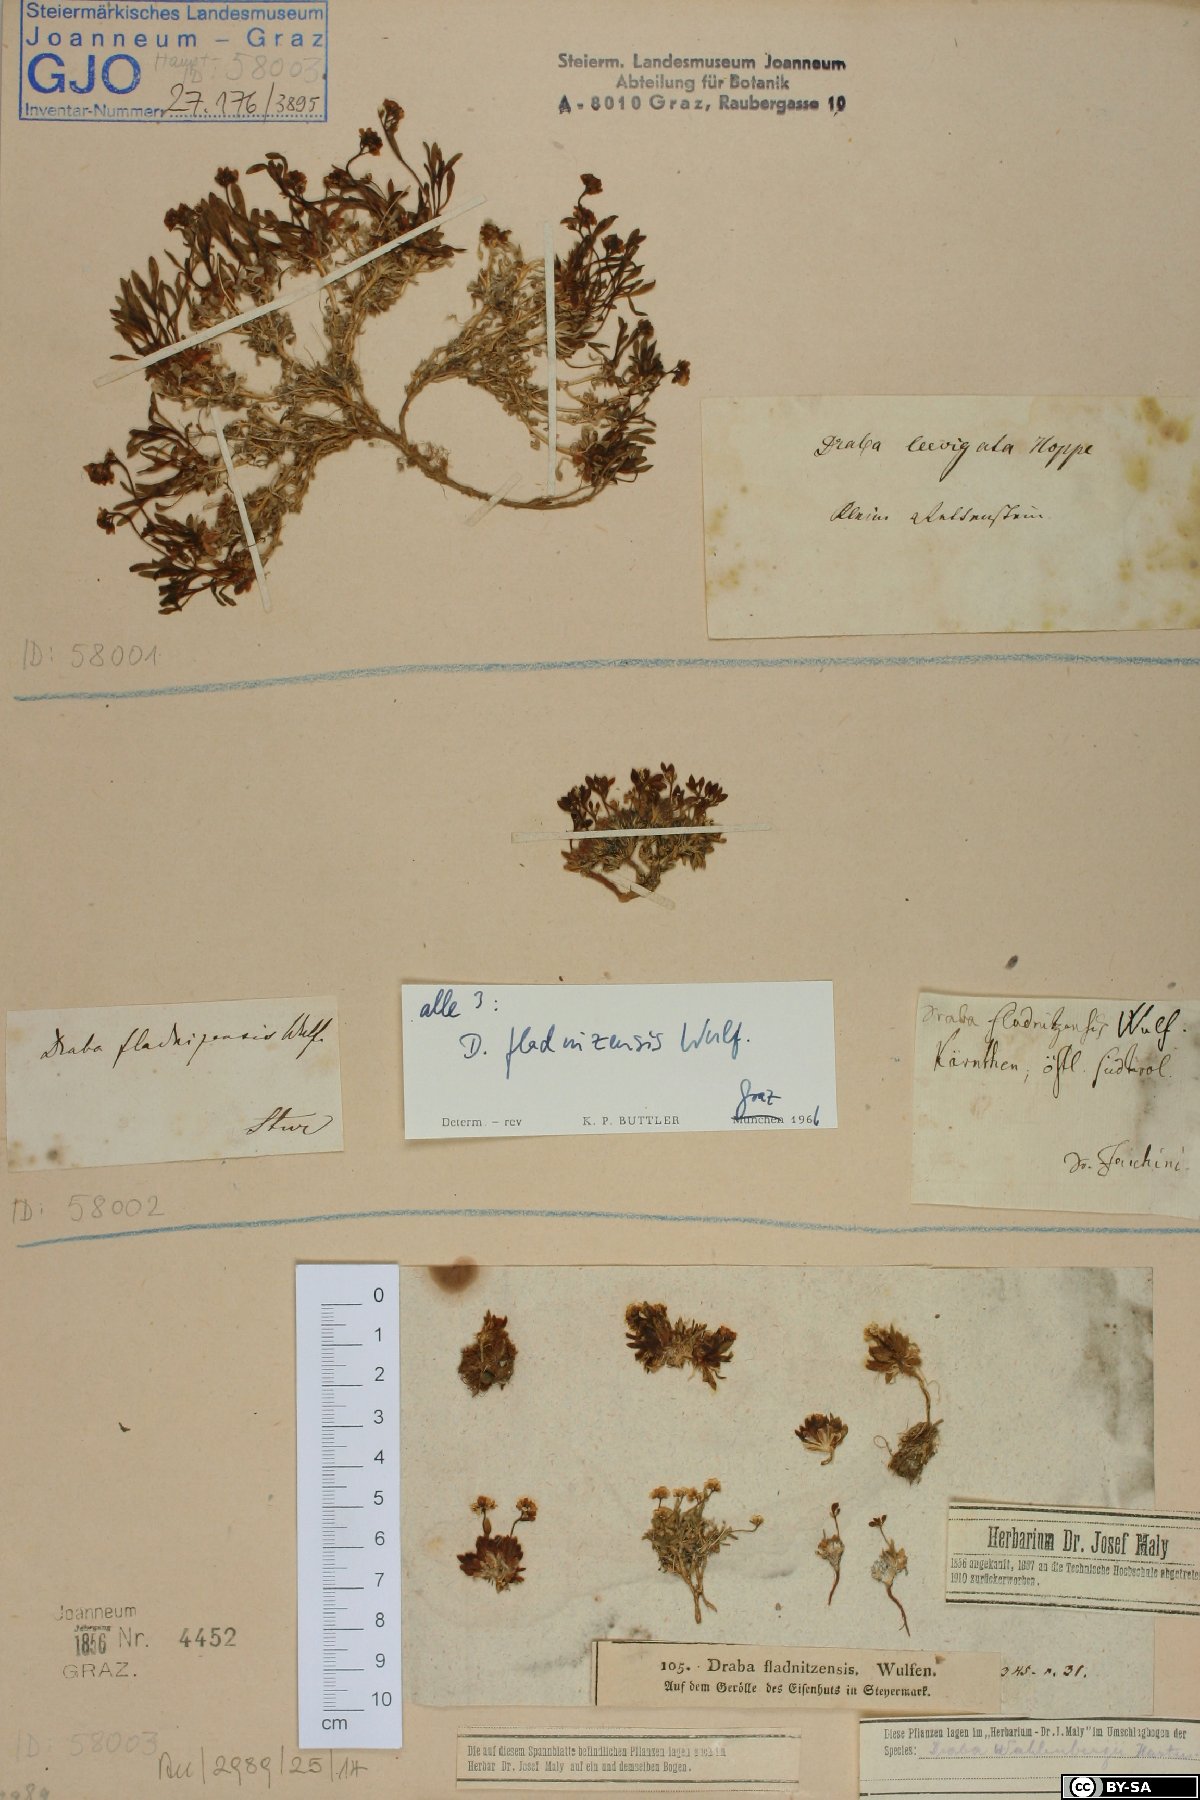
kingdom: Plantae
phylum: Tracheophyta
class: Magnoliopsida
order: Brassicales
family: Brassicaceae
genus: Draba
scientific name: Draba fladnizensis
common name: Austrian draba
